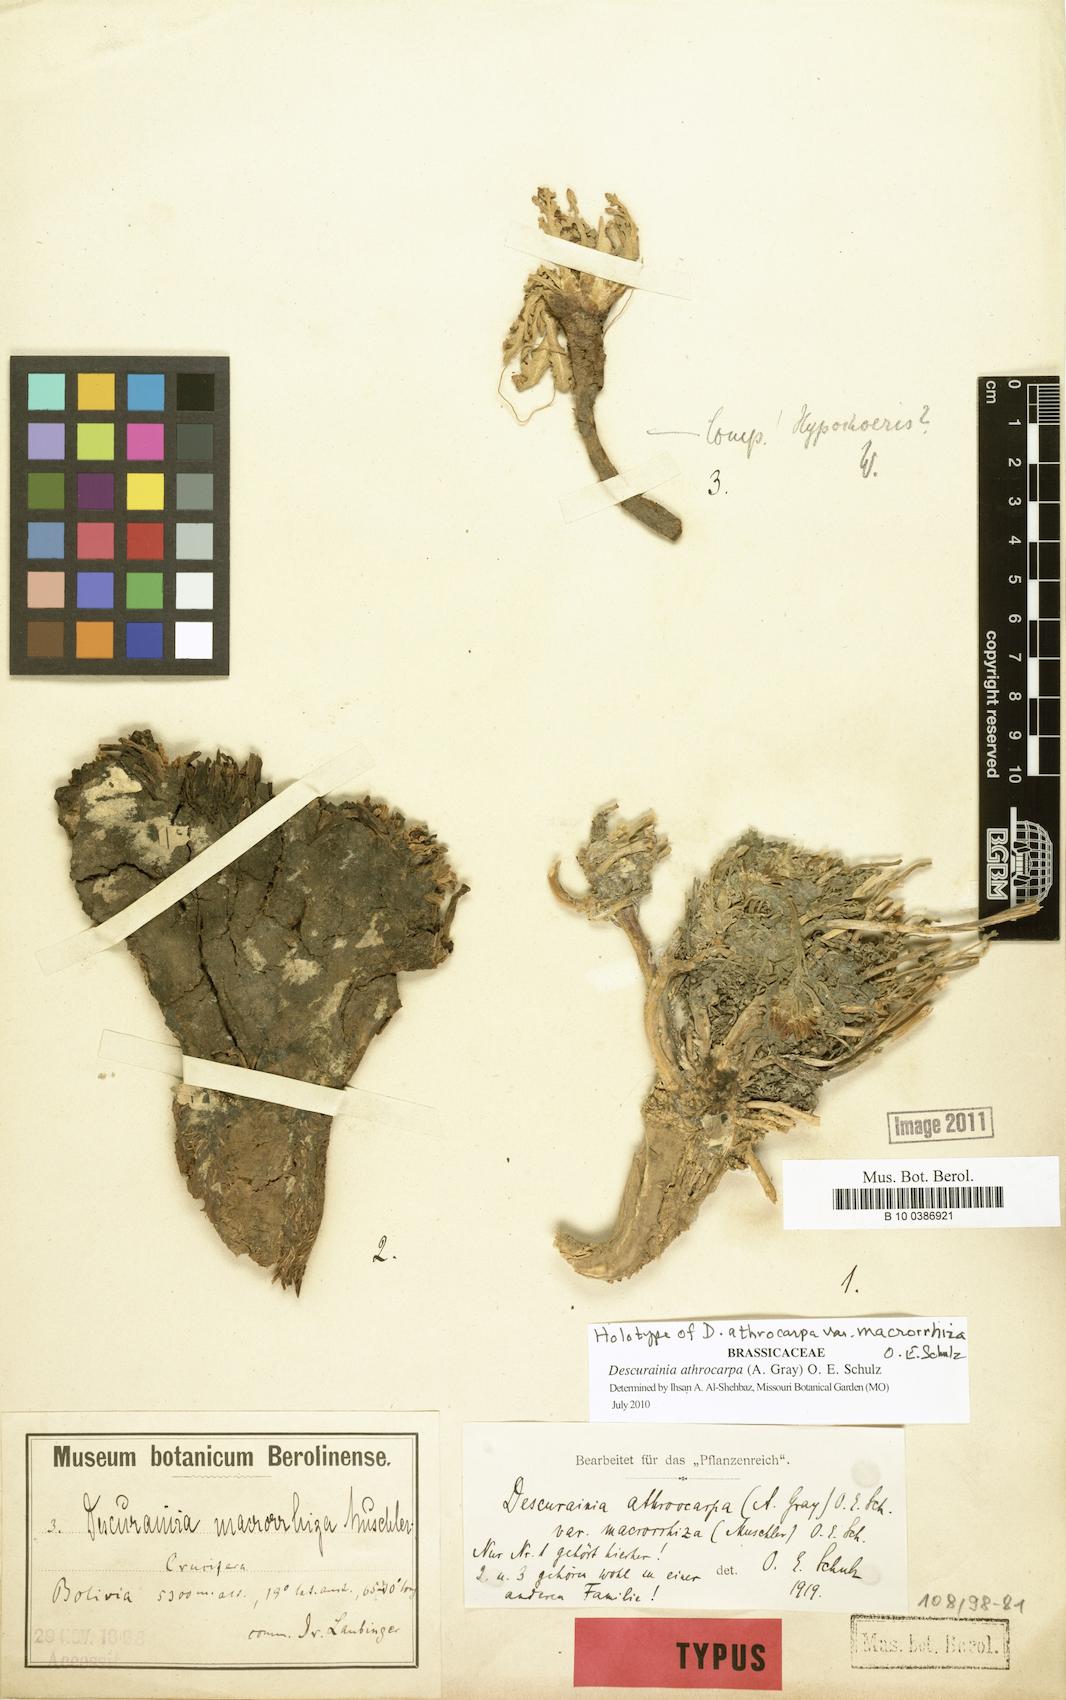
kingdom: Plantae
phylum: Tracheophyta
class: Magnoliopsida
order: Brassicales
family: Brassicaceae
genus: Descurainia
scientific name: Descurainia athrocarpa
